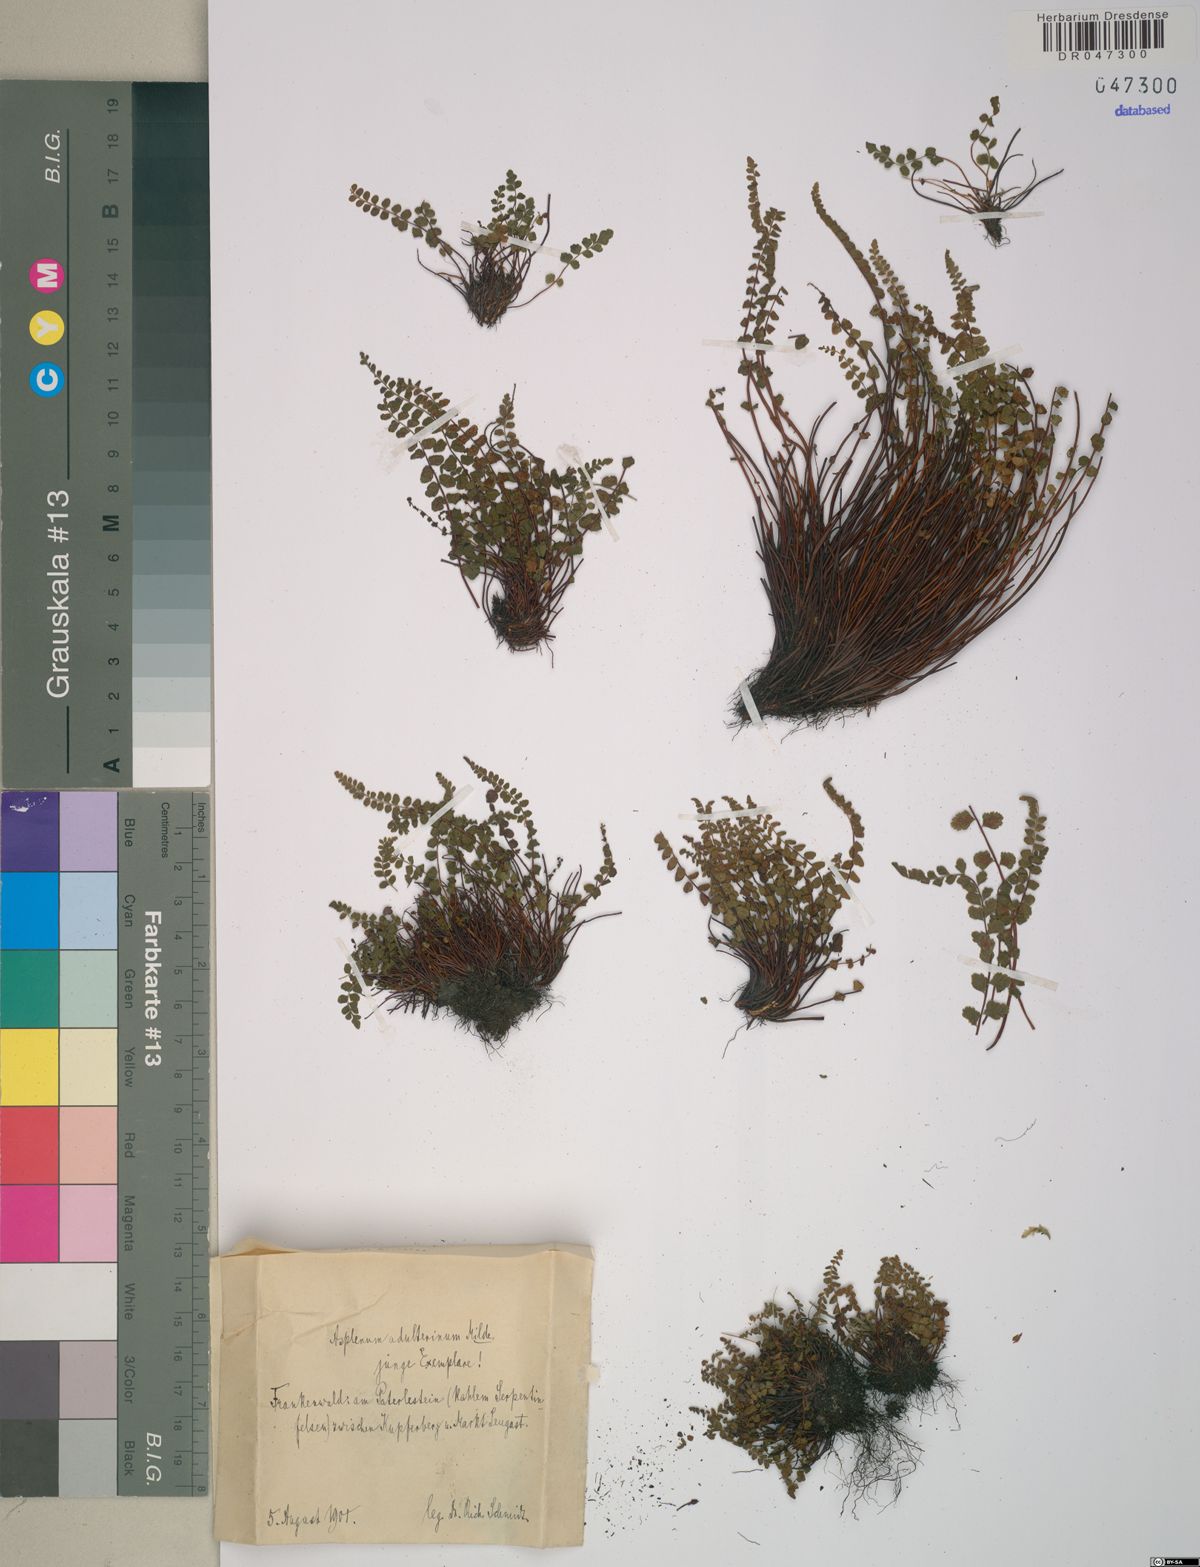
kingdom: Plantae
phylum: Tracheophyta
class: Polypodiopsida
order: Polypodiales
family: Aspleniaceae
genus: Asplenium
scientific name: Asplenium adulterinum
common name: Adulterated spleenwort
